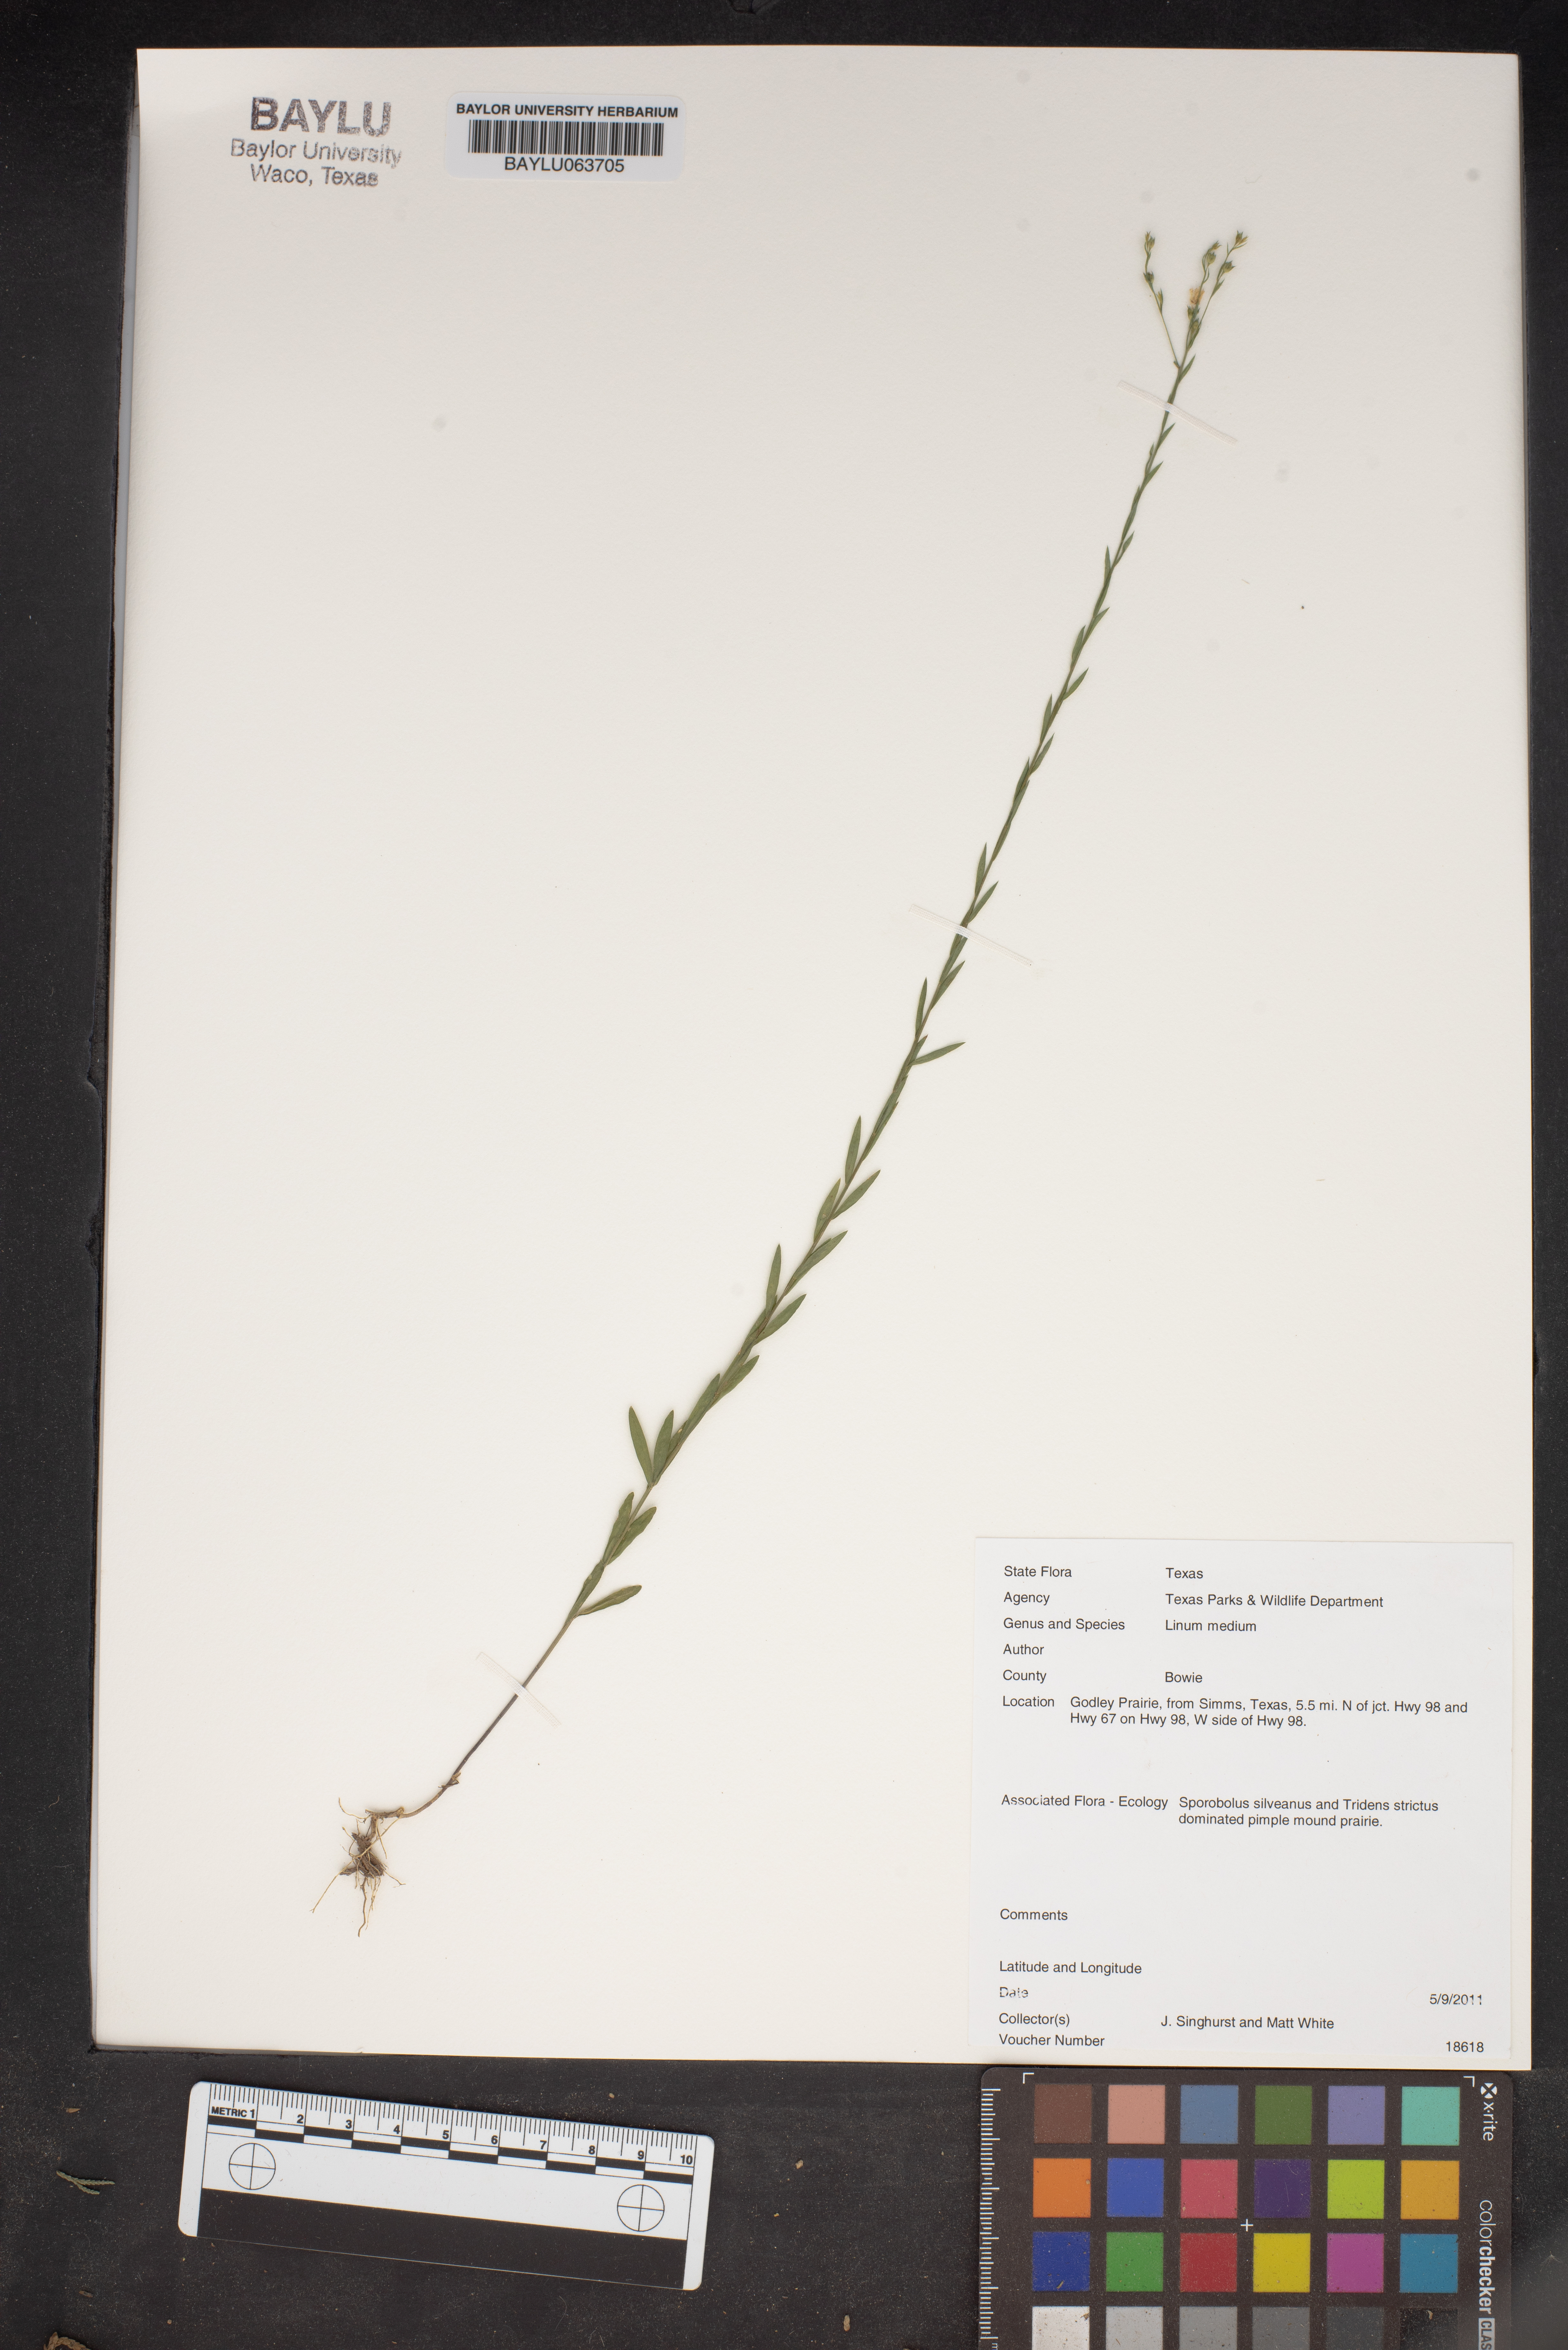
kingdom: Plantae
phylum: Tracheophyta
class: Magnoliopsida
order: Malpighiales
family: Linaceae
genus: Linum
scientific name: Linum medium
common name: Stiff yellow flax
